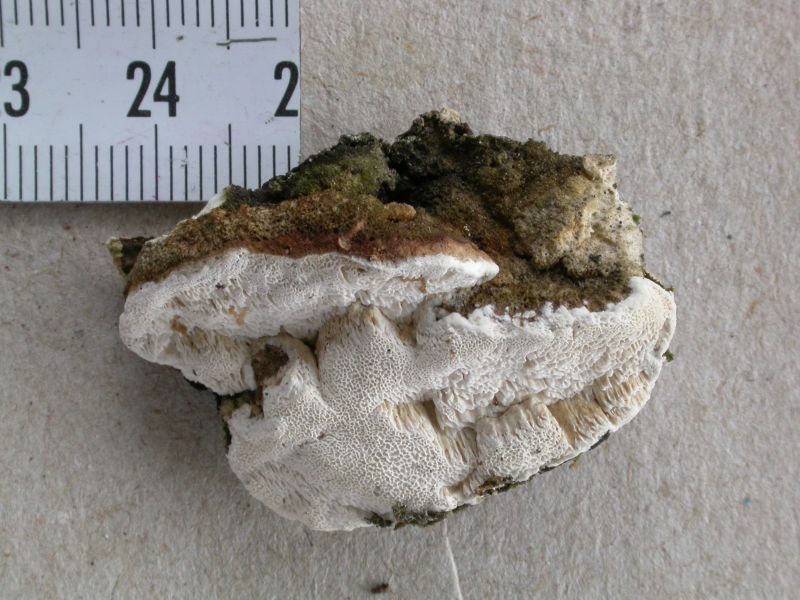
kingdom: Fungi
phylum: Basidiomycota
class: Agaricomycetes
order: Polyporales
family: Fomitopsidaceae
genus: Neoantrodia
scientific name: Neoantrodia serialis
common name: række-sejporesvamp
